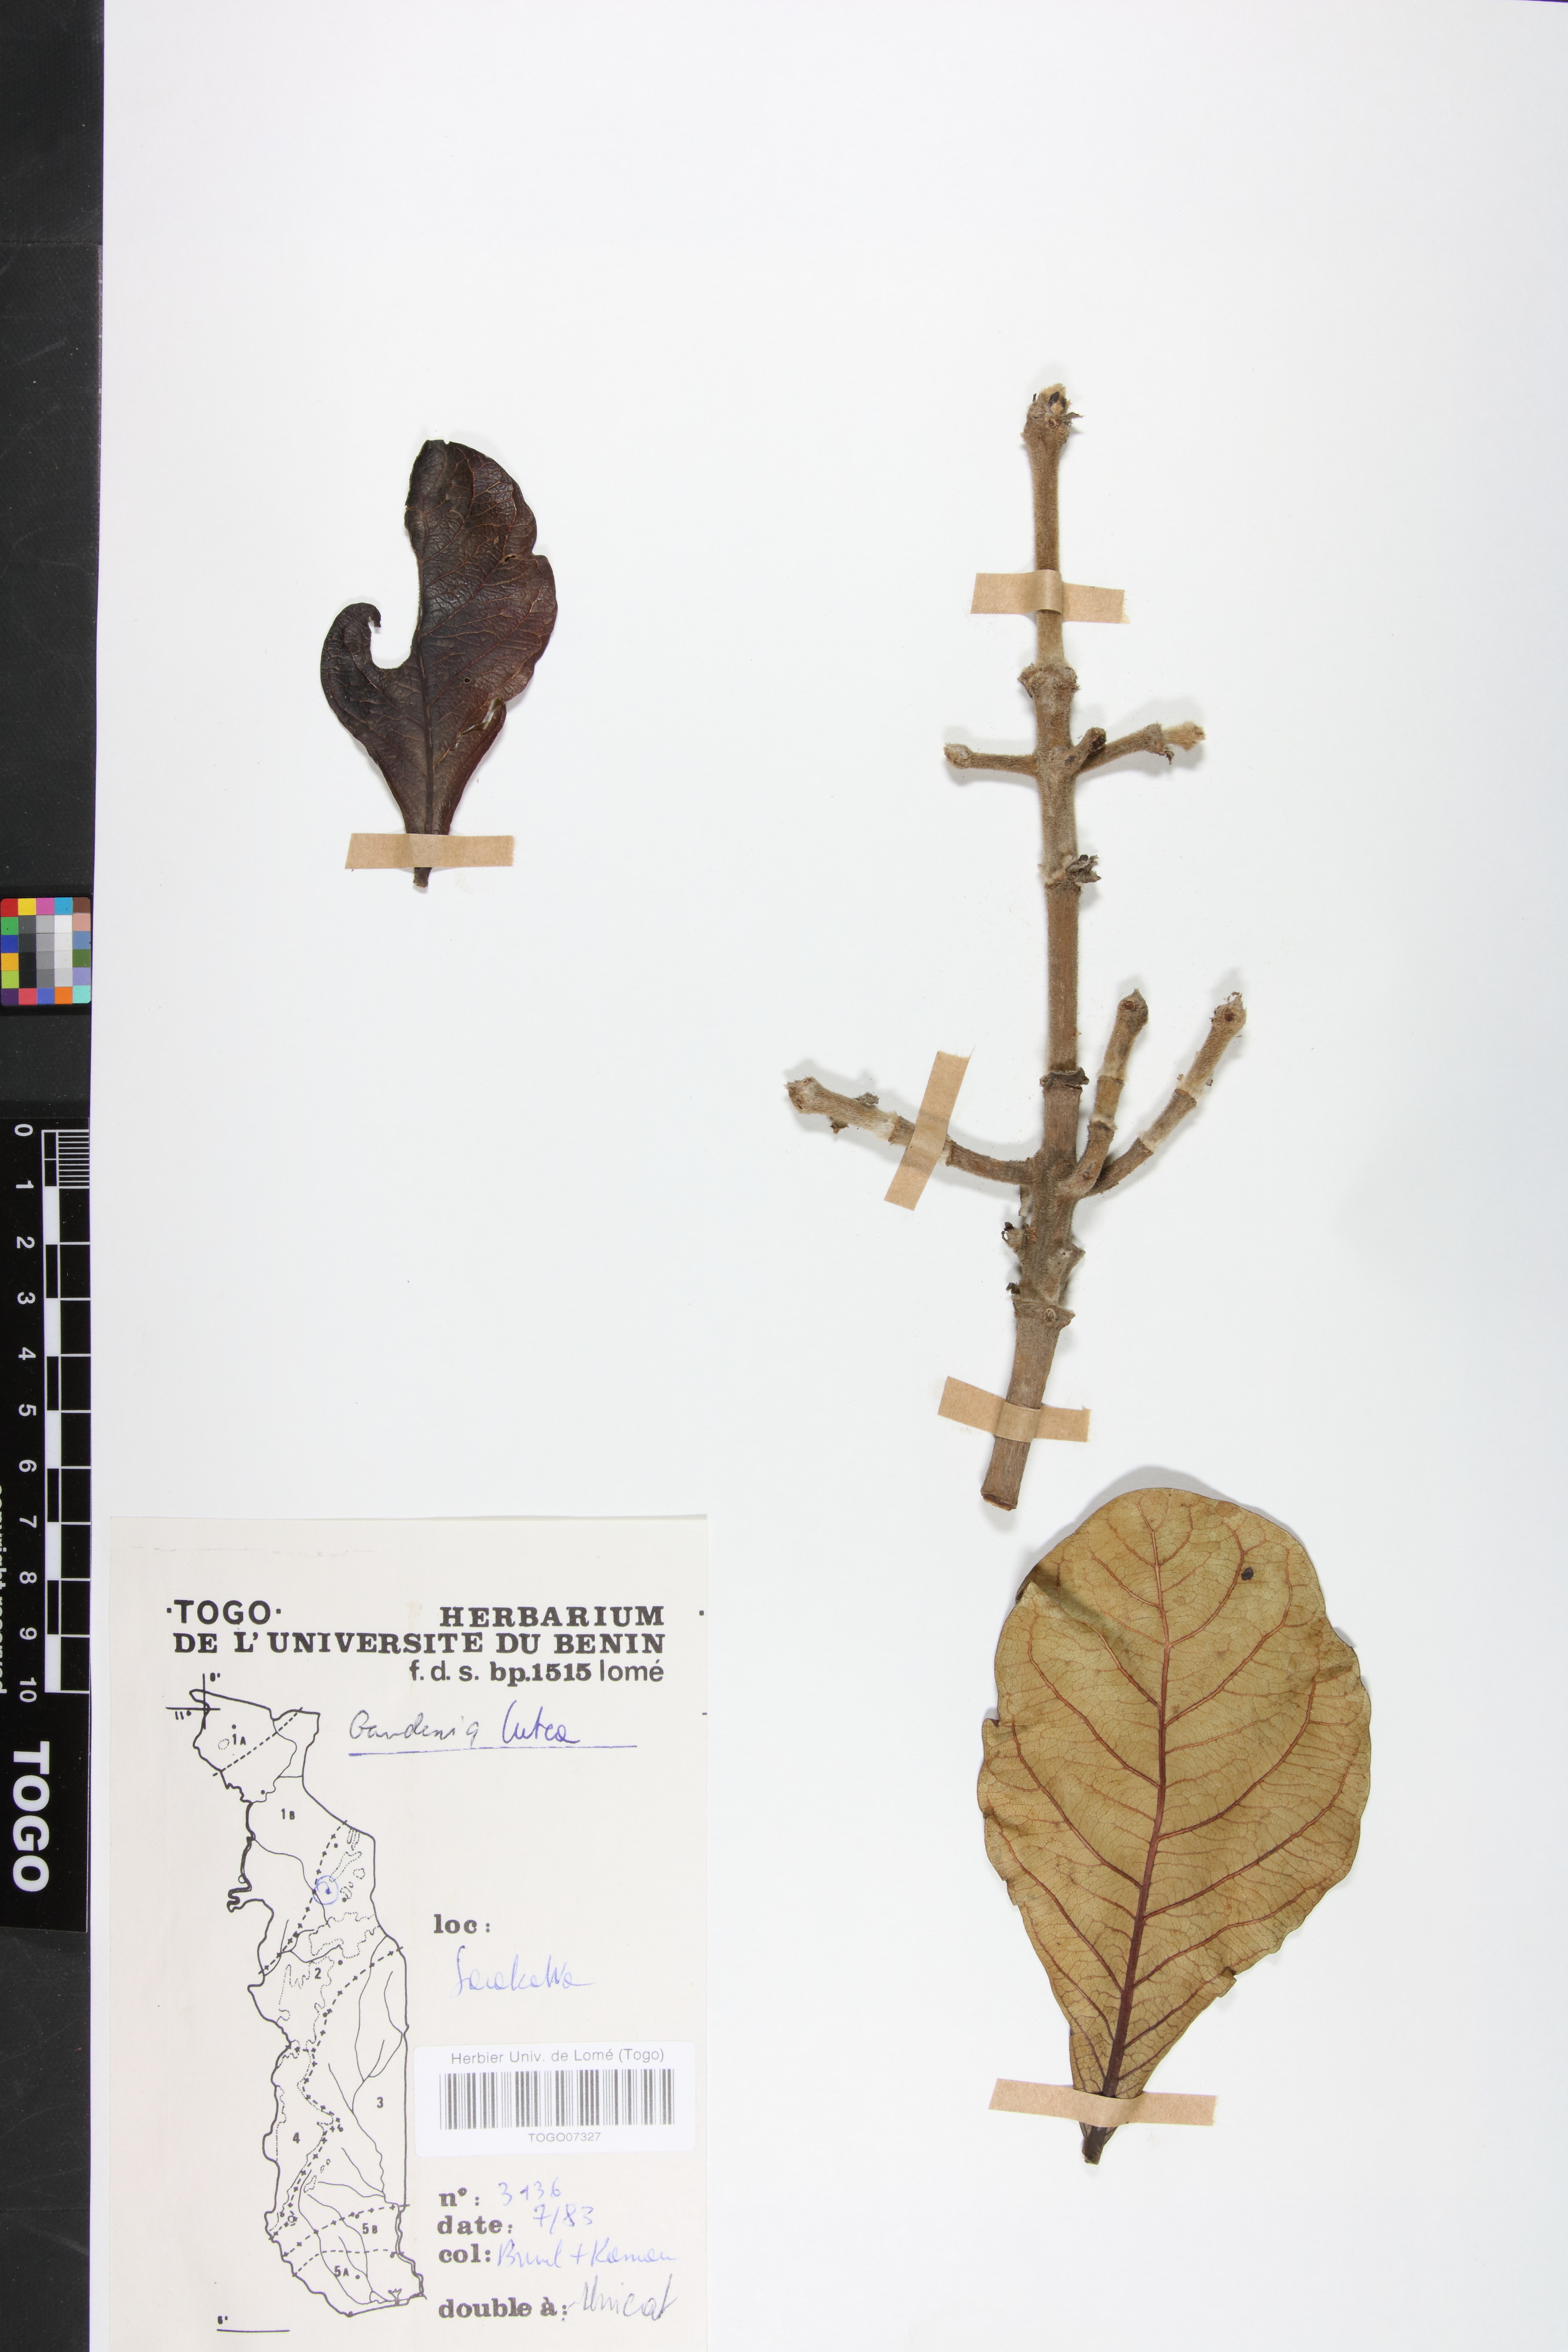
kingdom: Plantae
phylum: Tracheophyta
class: Magnoliopsida
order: Gentianales
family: Rubiaceae
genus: Gardenia
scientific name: Gardenia ternifolia
